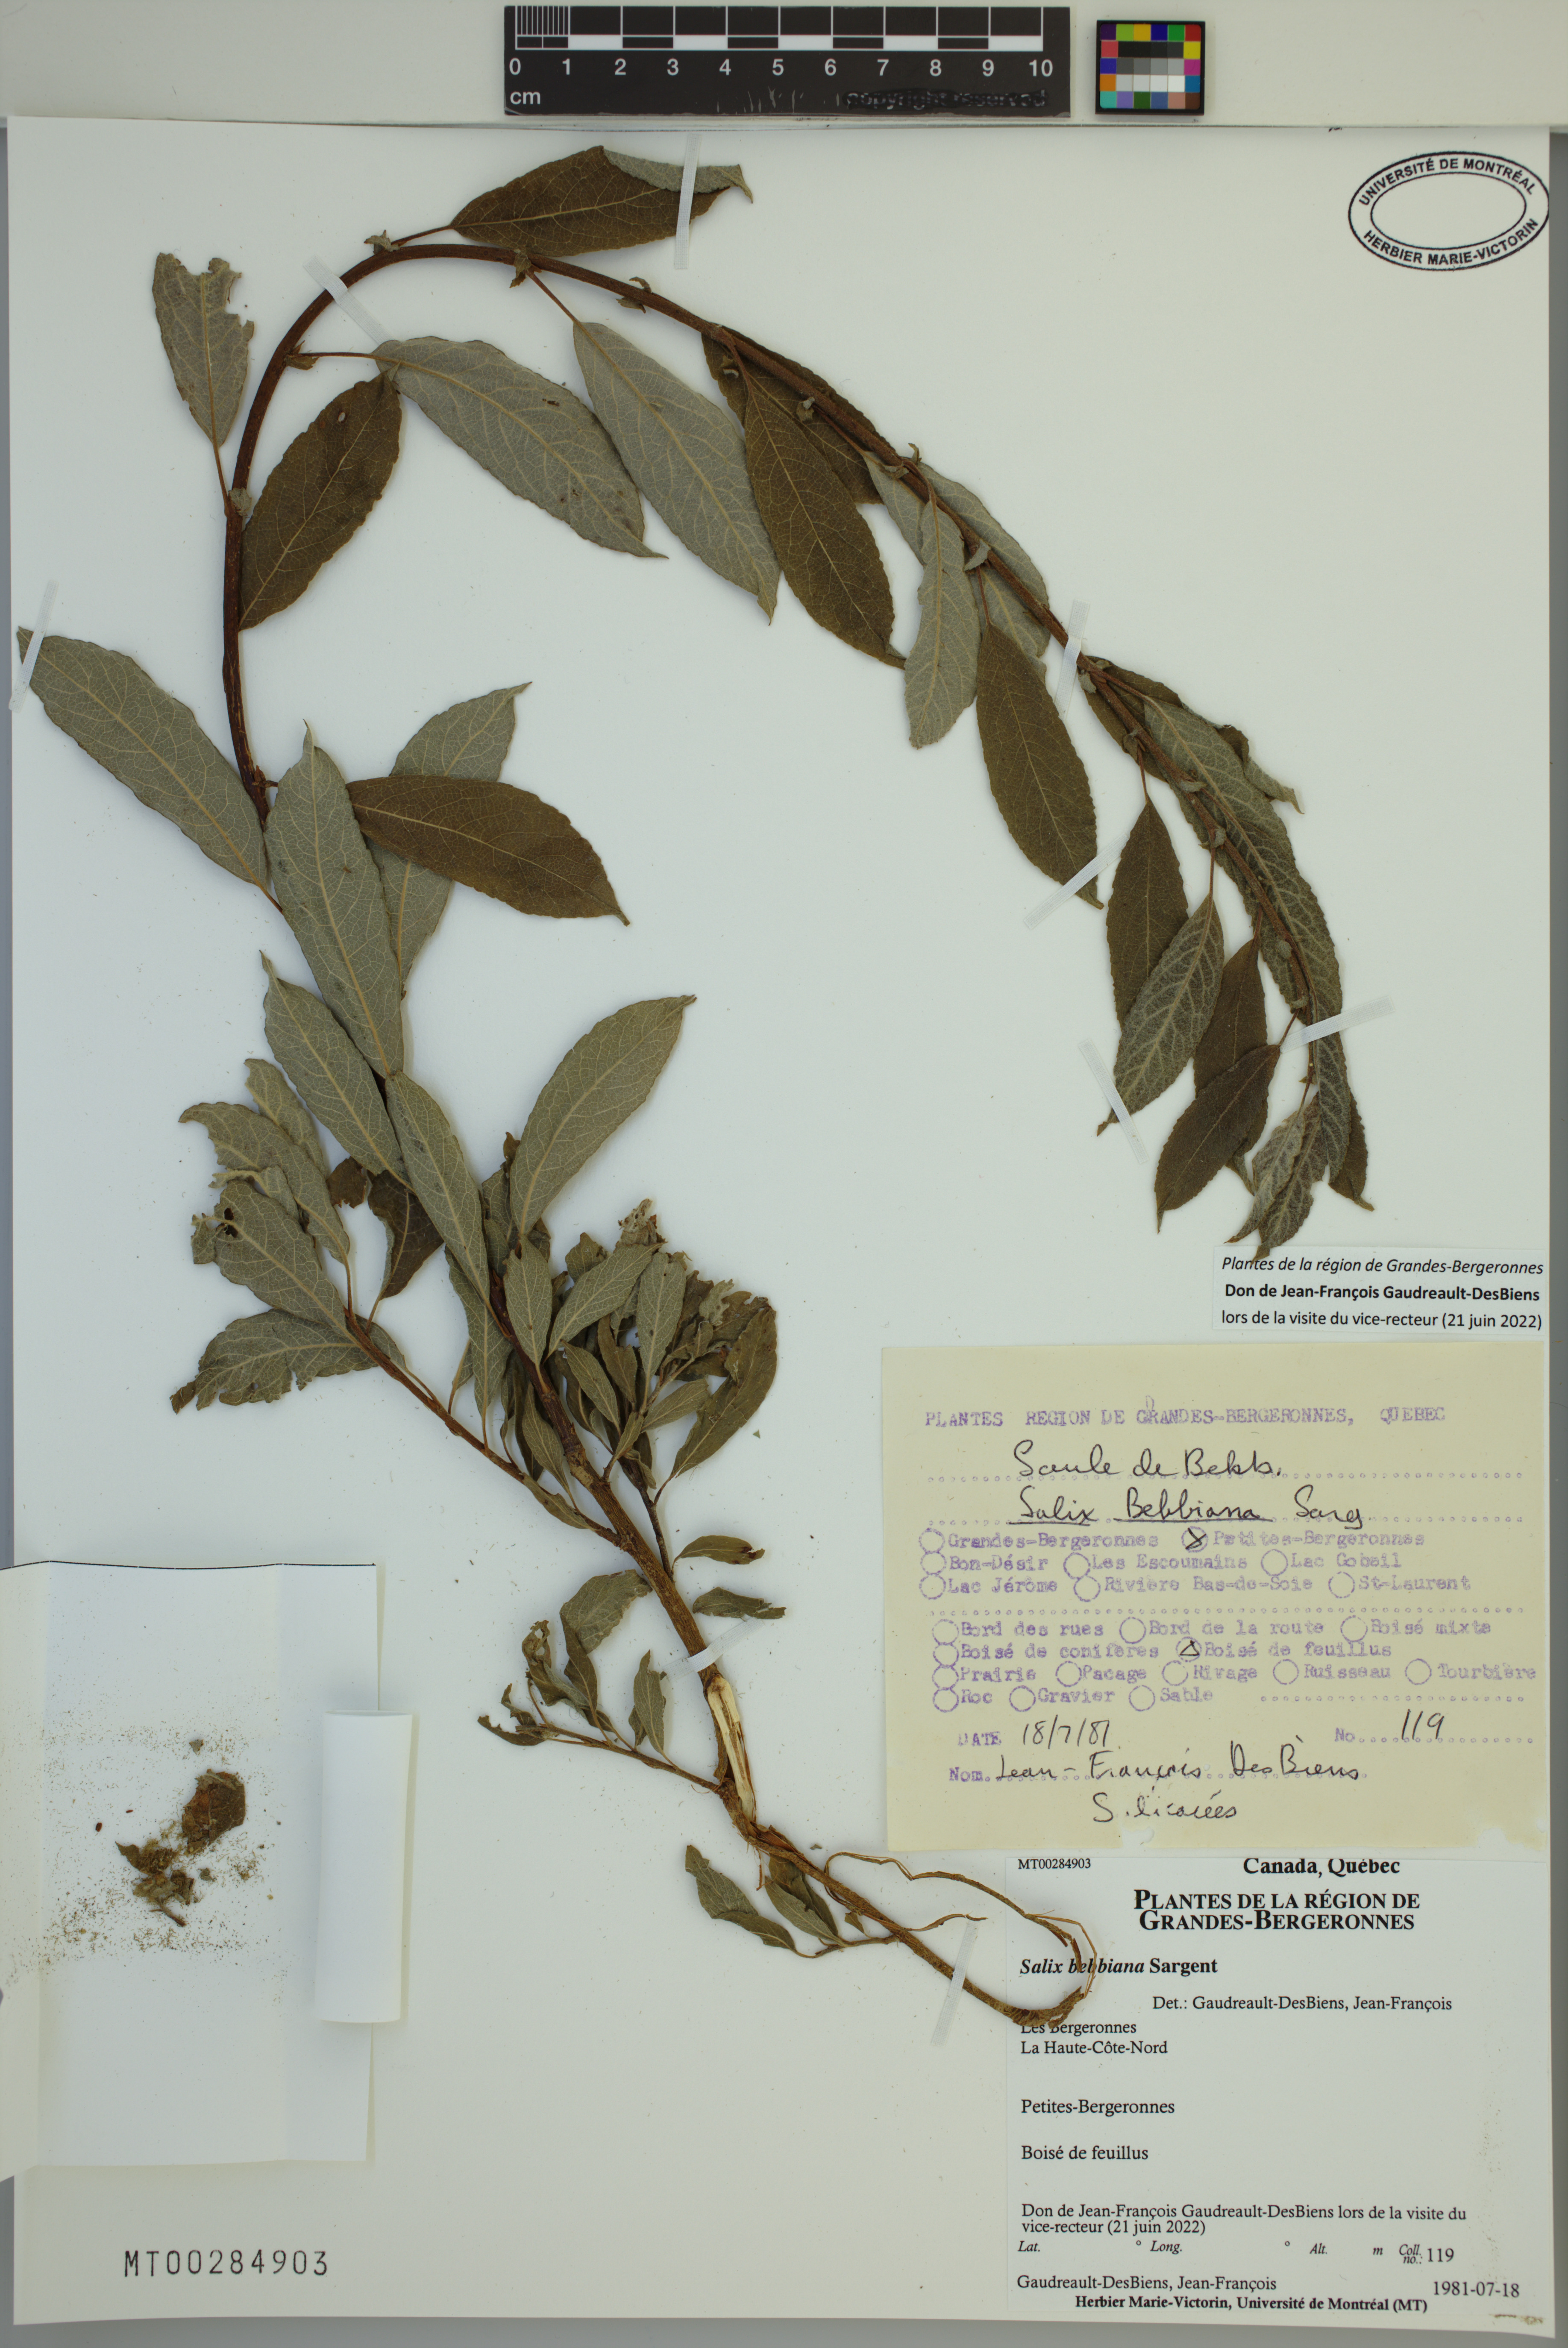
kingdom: Plantae
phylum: Tracheophyta
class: Magnoliopsida
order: Malpighiales
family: Salicaceae
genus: Salix
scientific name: Salix bebbiana
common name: Bebb's willow
